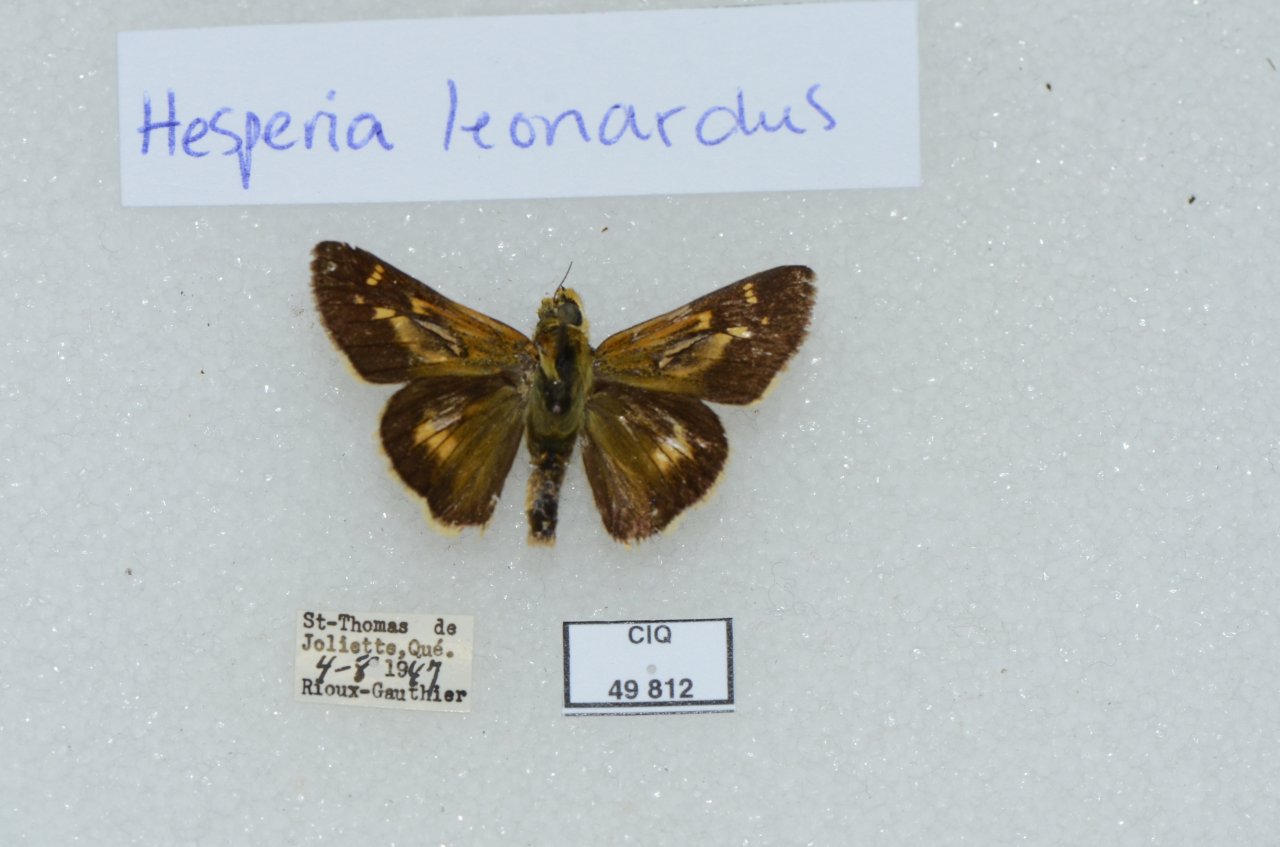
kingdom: Animalia
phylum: Arthropoda
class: Insecta
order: Lepidoptera
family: Hesperiidae
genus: Hesperia
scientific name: Hesperia leonardus
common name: Leonard's Skipper
